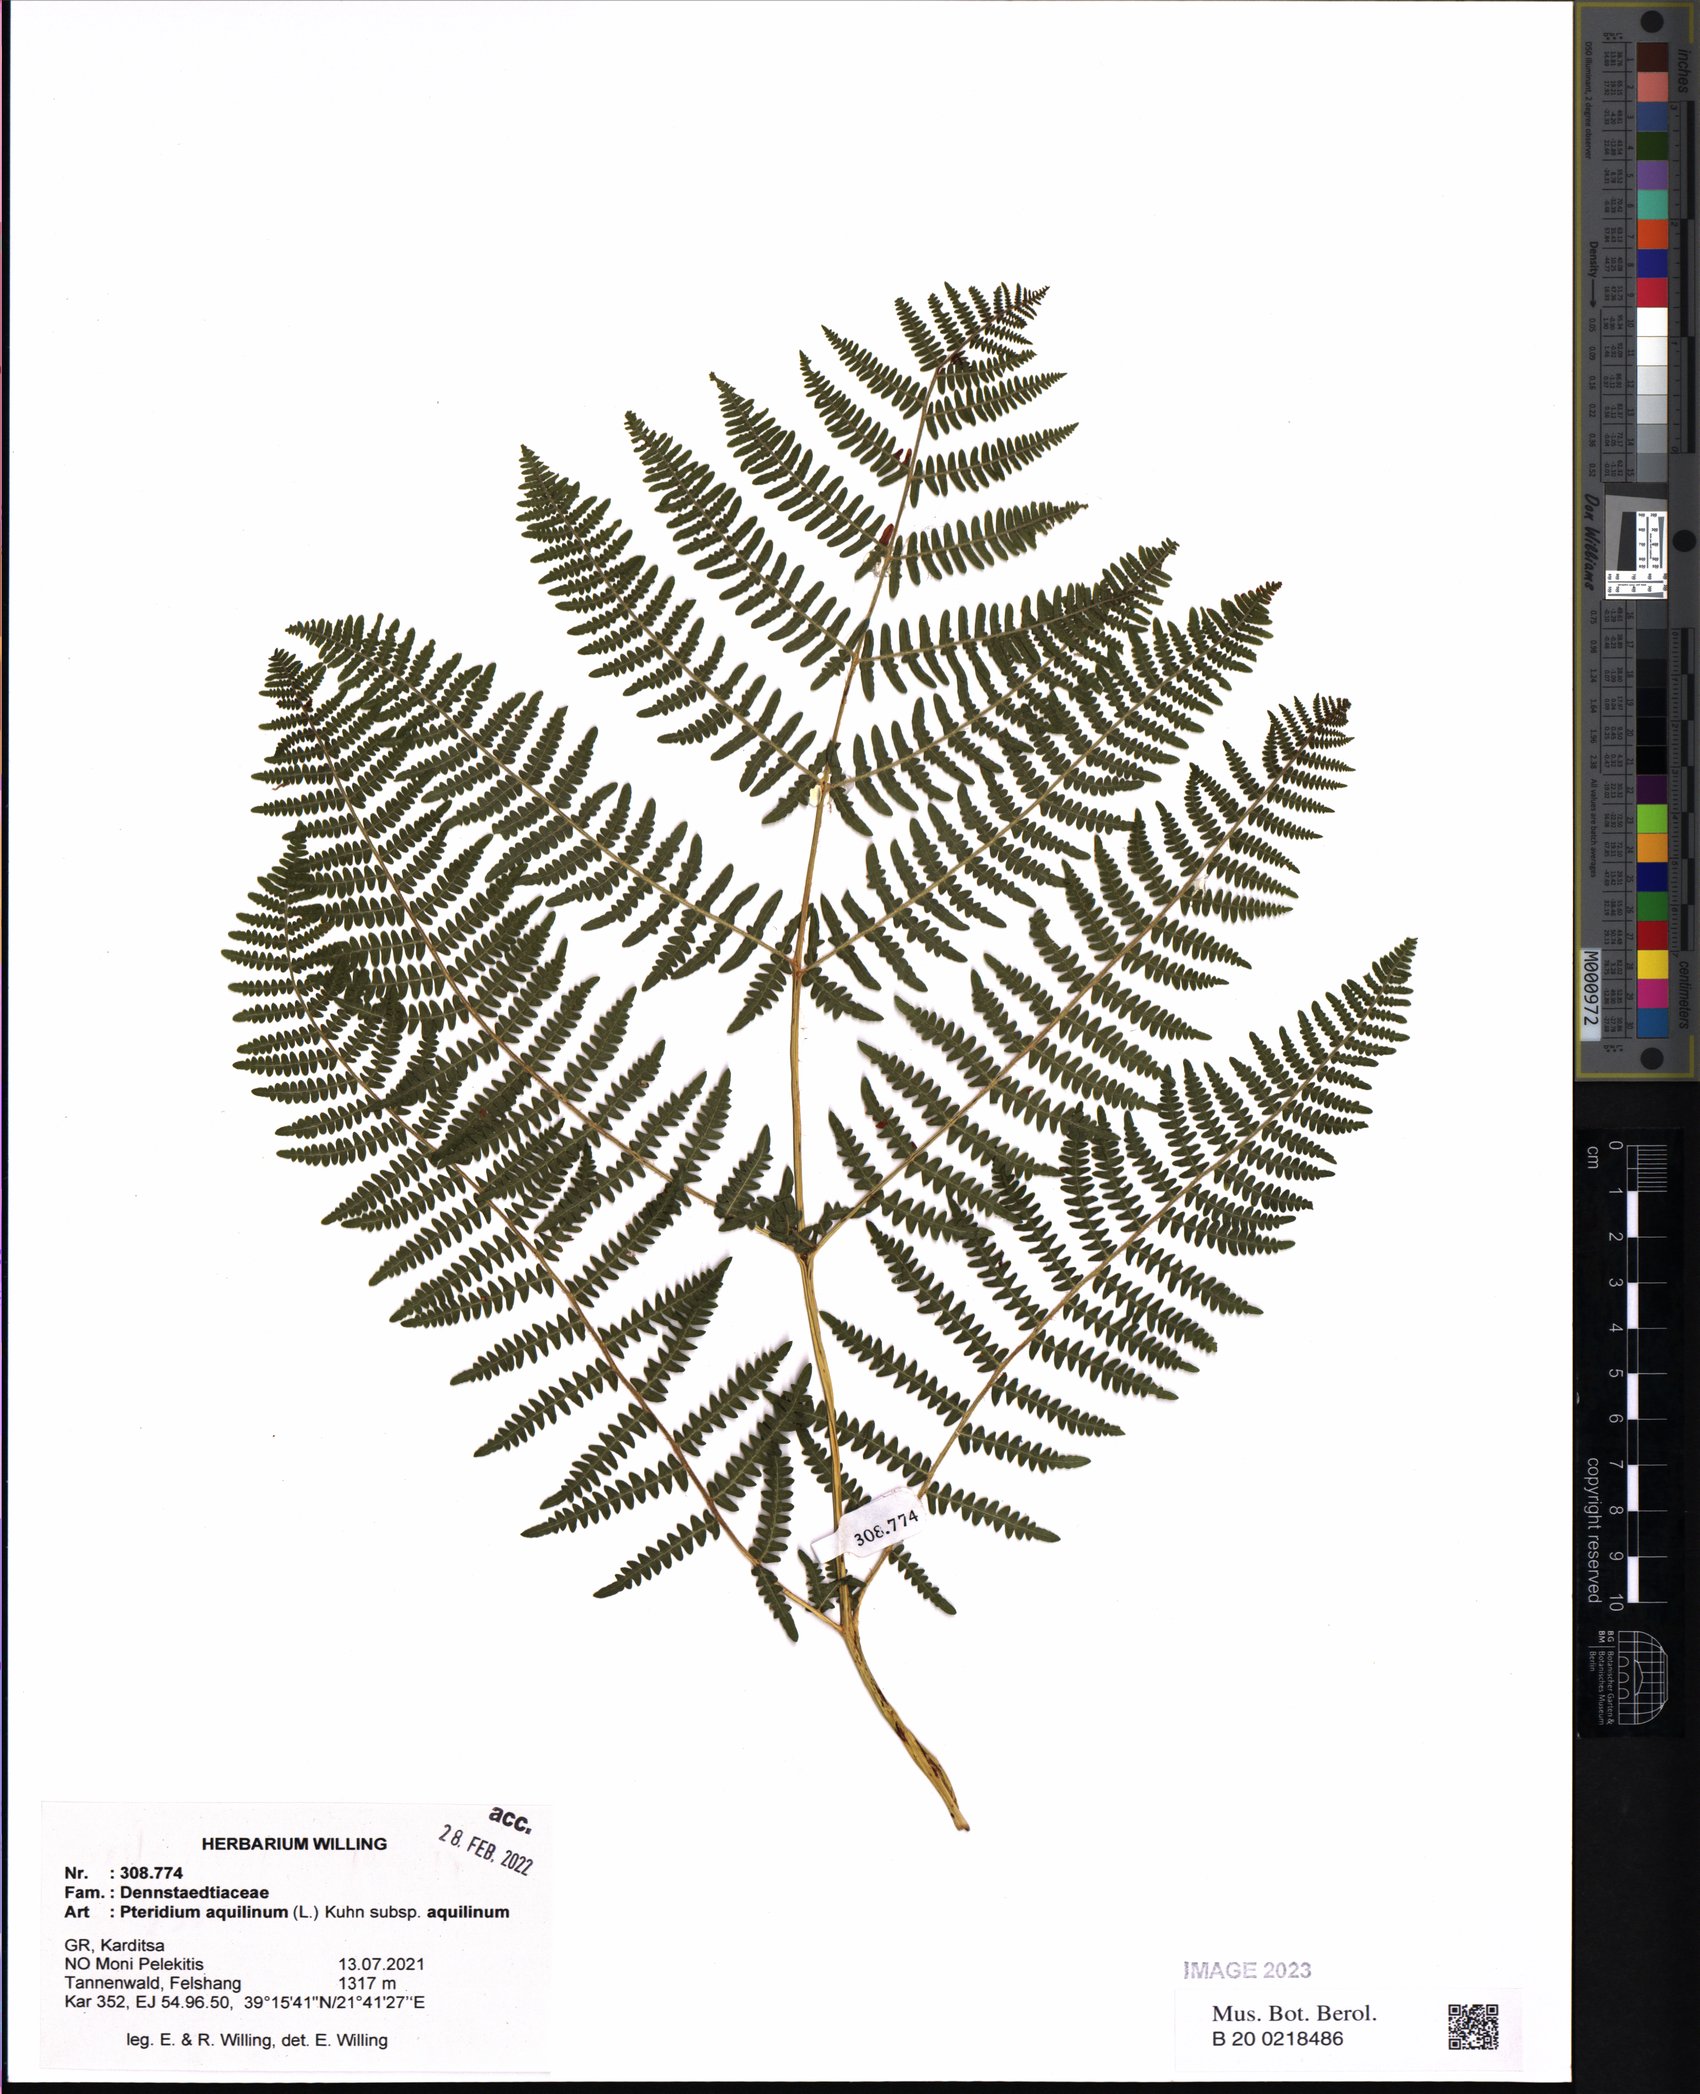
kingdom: Plantae
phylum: Tracheophyta
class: Polypodiopsida
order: Polypodiales
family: Dennstaedtiaceae
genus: Pteridium
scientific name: Pteridium aquilinum
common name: Bracken
